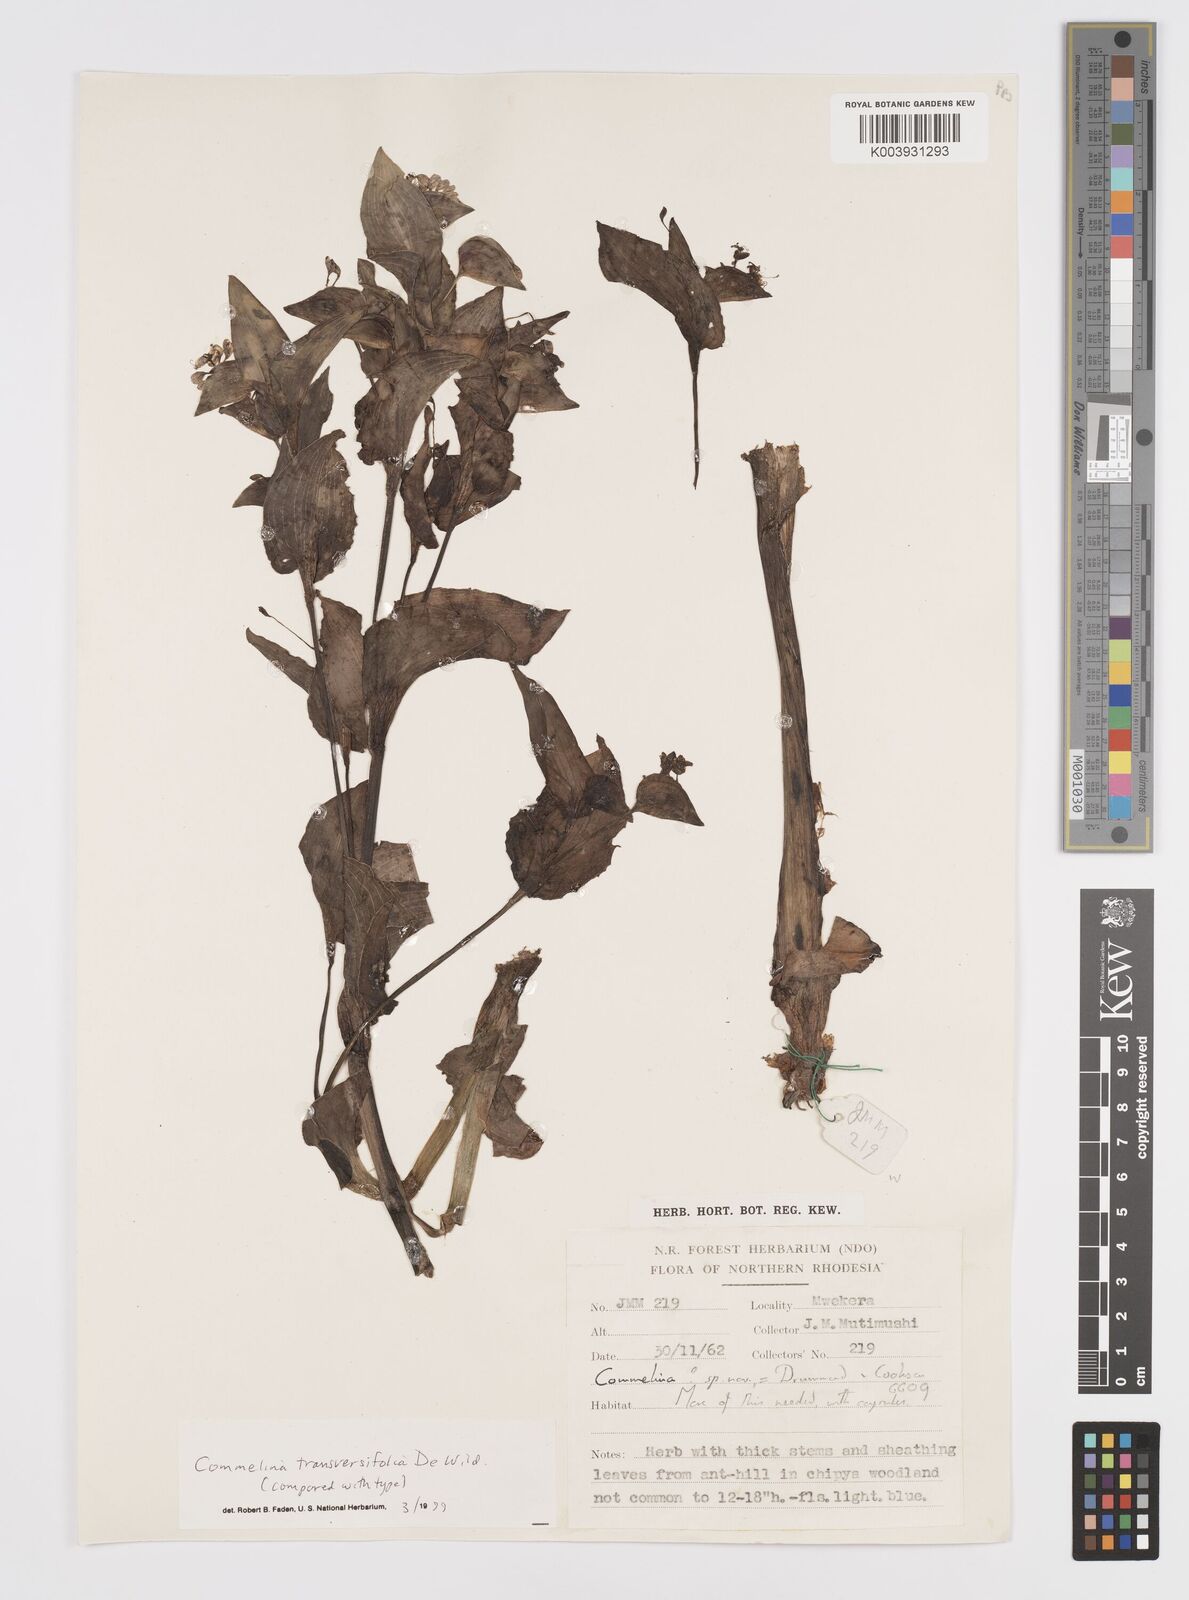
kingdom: Plantae
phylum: Tracheophyta
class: Liliopsida
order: Commelinales
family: Commelinaceae
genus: Commelina
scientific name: Commelina transversifolia
